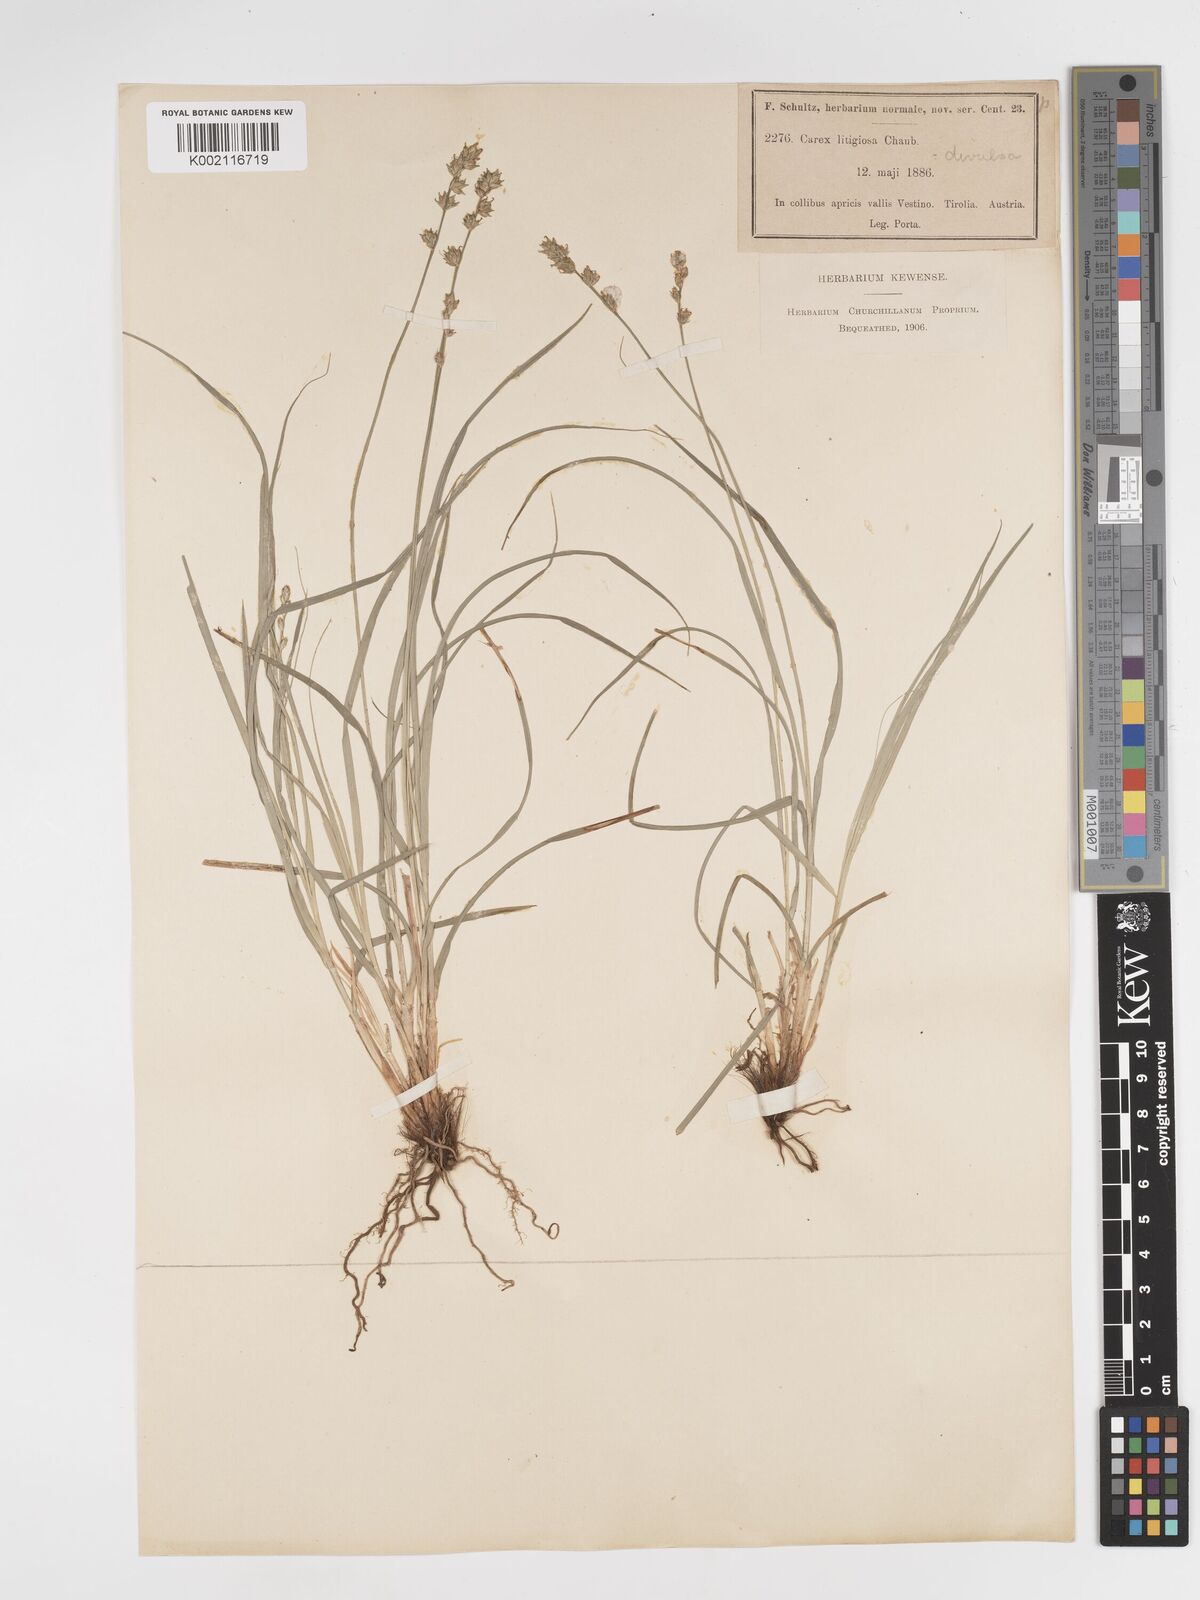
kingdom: Plantae
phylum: Tracheophyta
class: Liliopsida
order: Poales
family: Cyperaceae
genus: Carex
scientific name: Carex divulsa
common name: Grassland sedge
